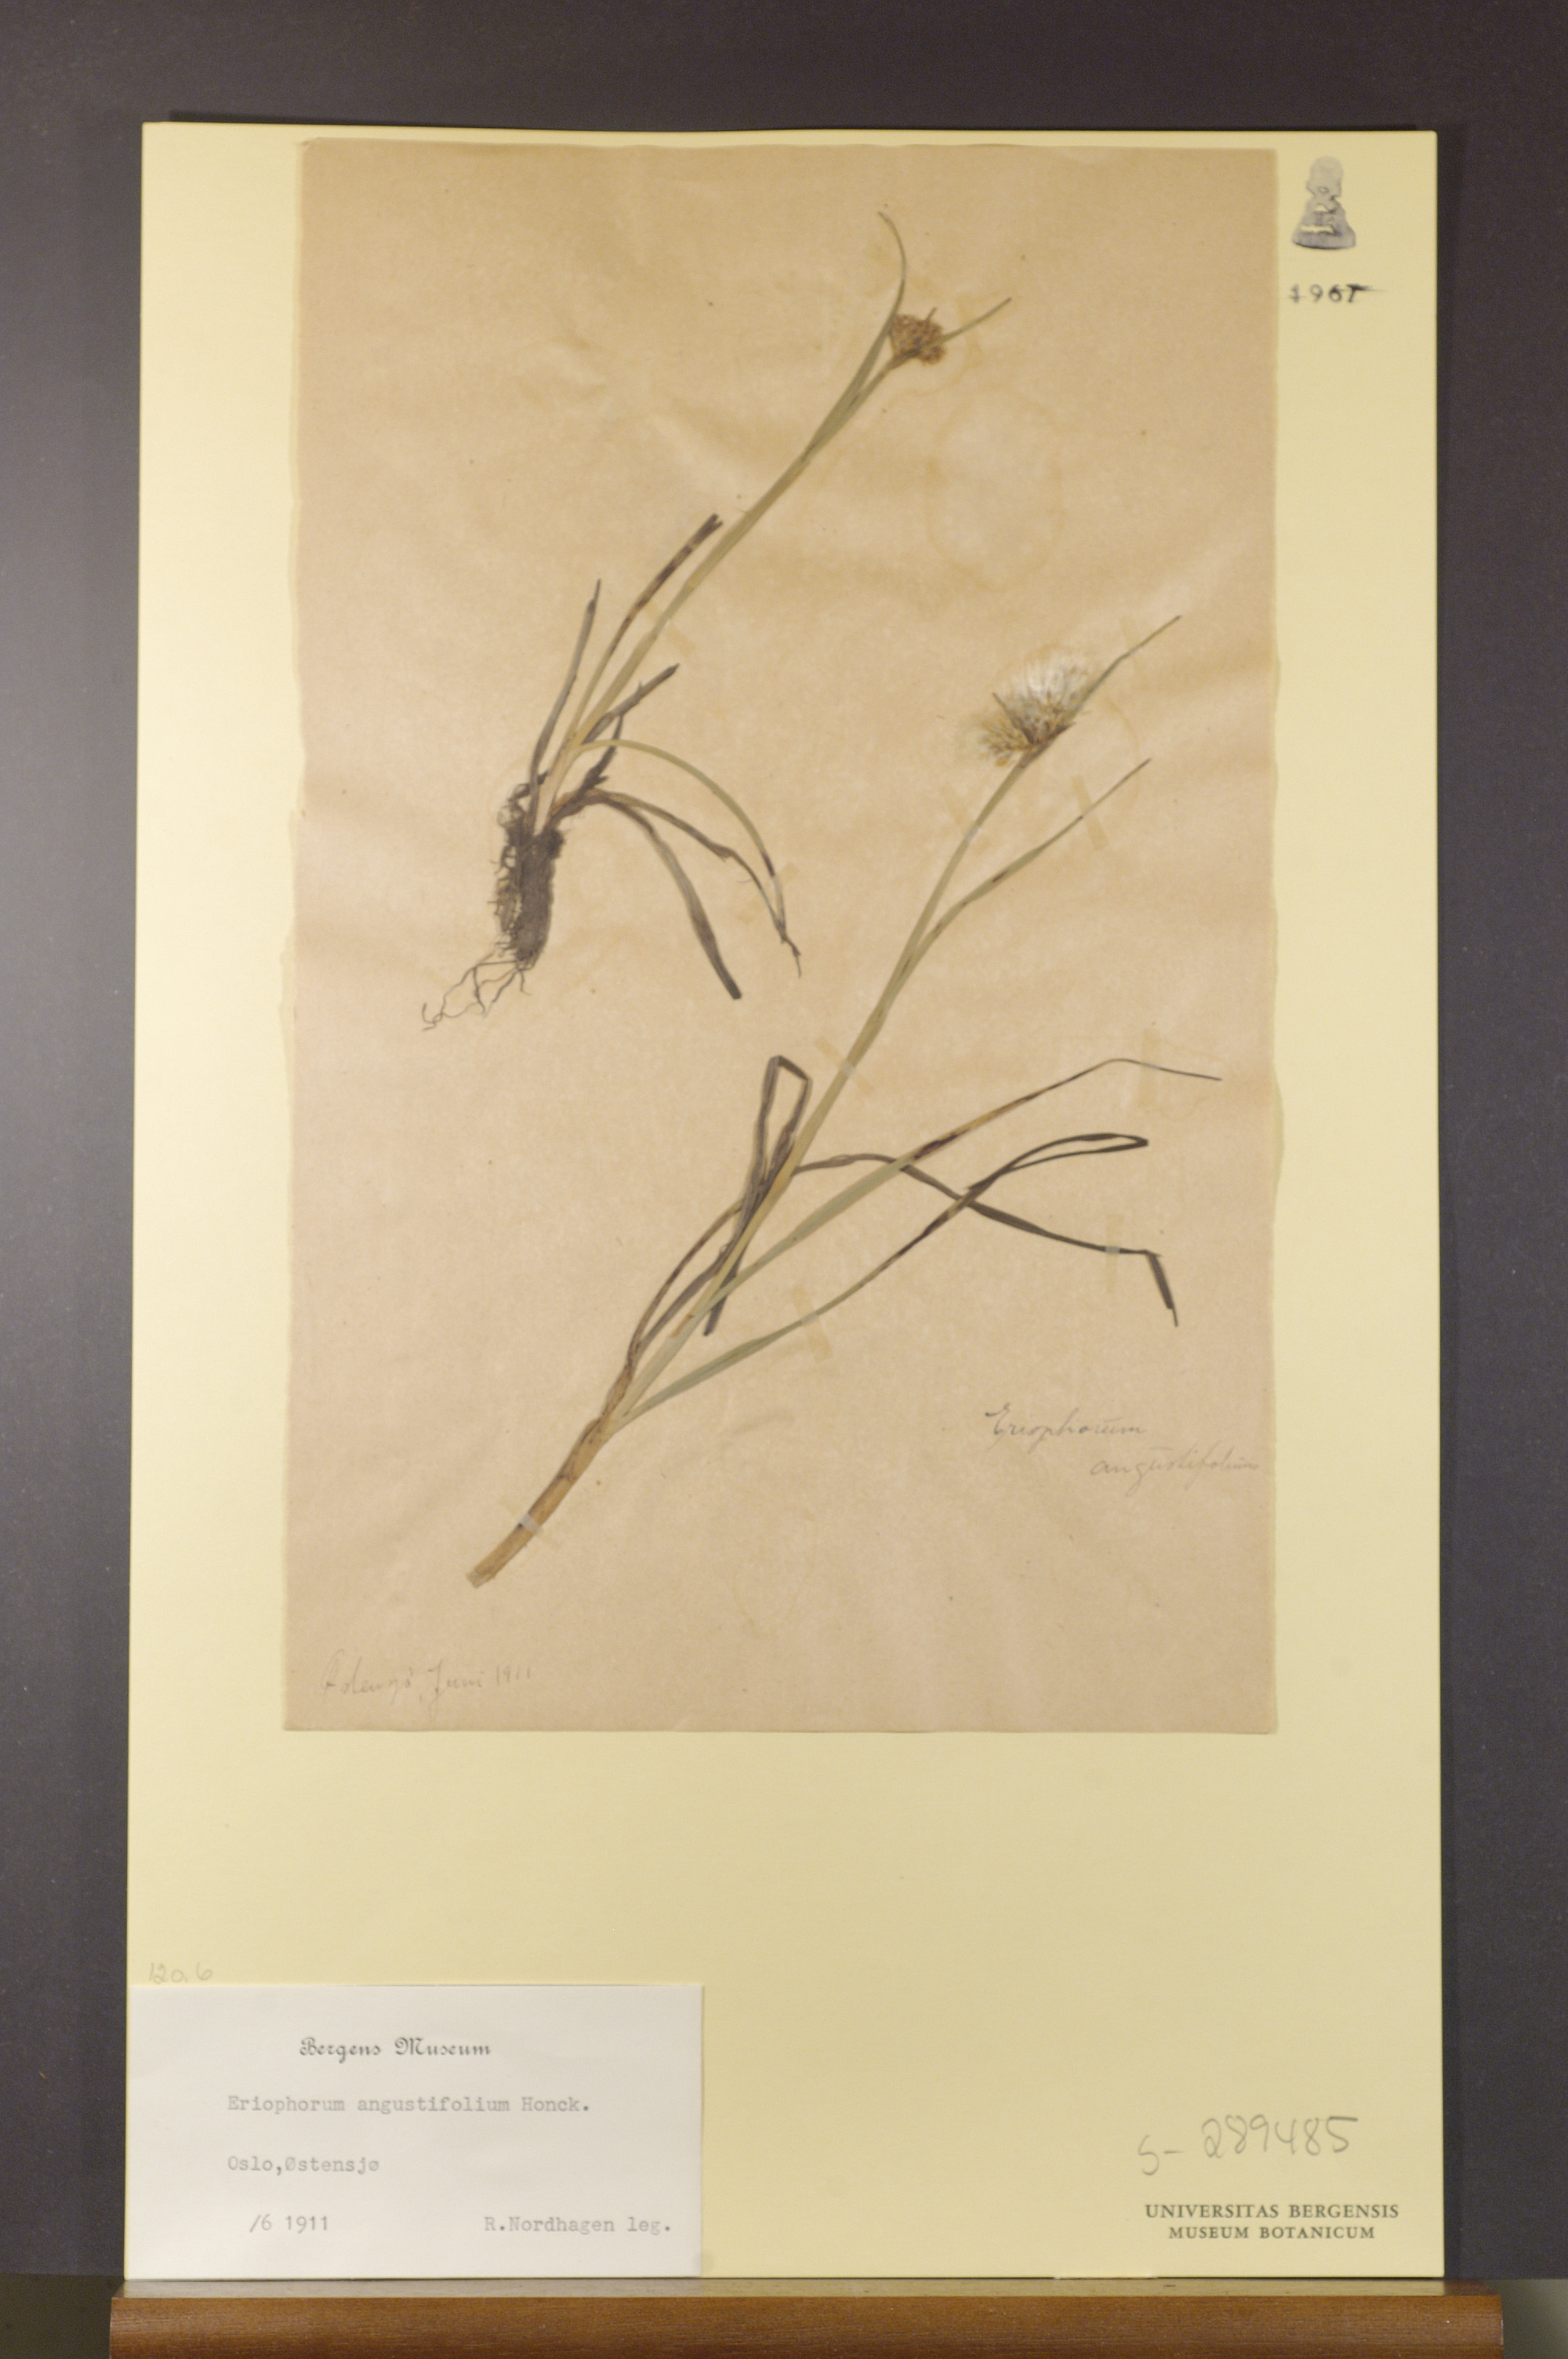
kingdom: Plantae
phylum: Tracheophyta
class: Liliopsida
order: Poales
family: Cyperaceae
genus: Eriophorum
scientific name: Eriophorum angustifolium
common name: Common cottongrass
